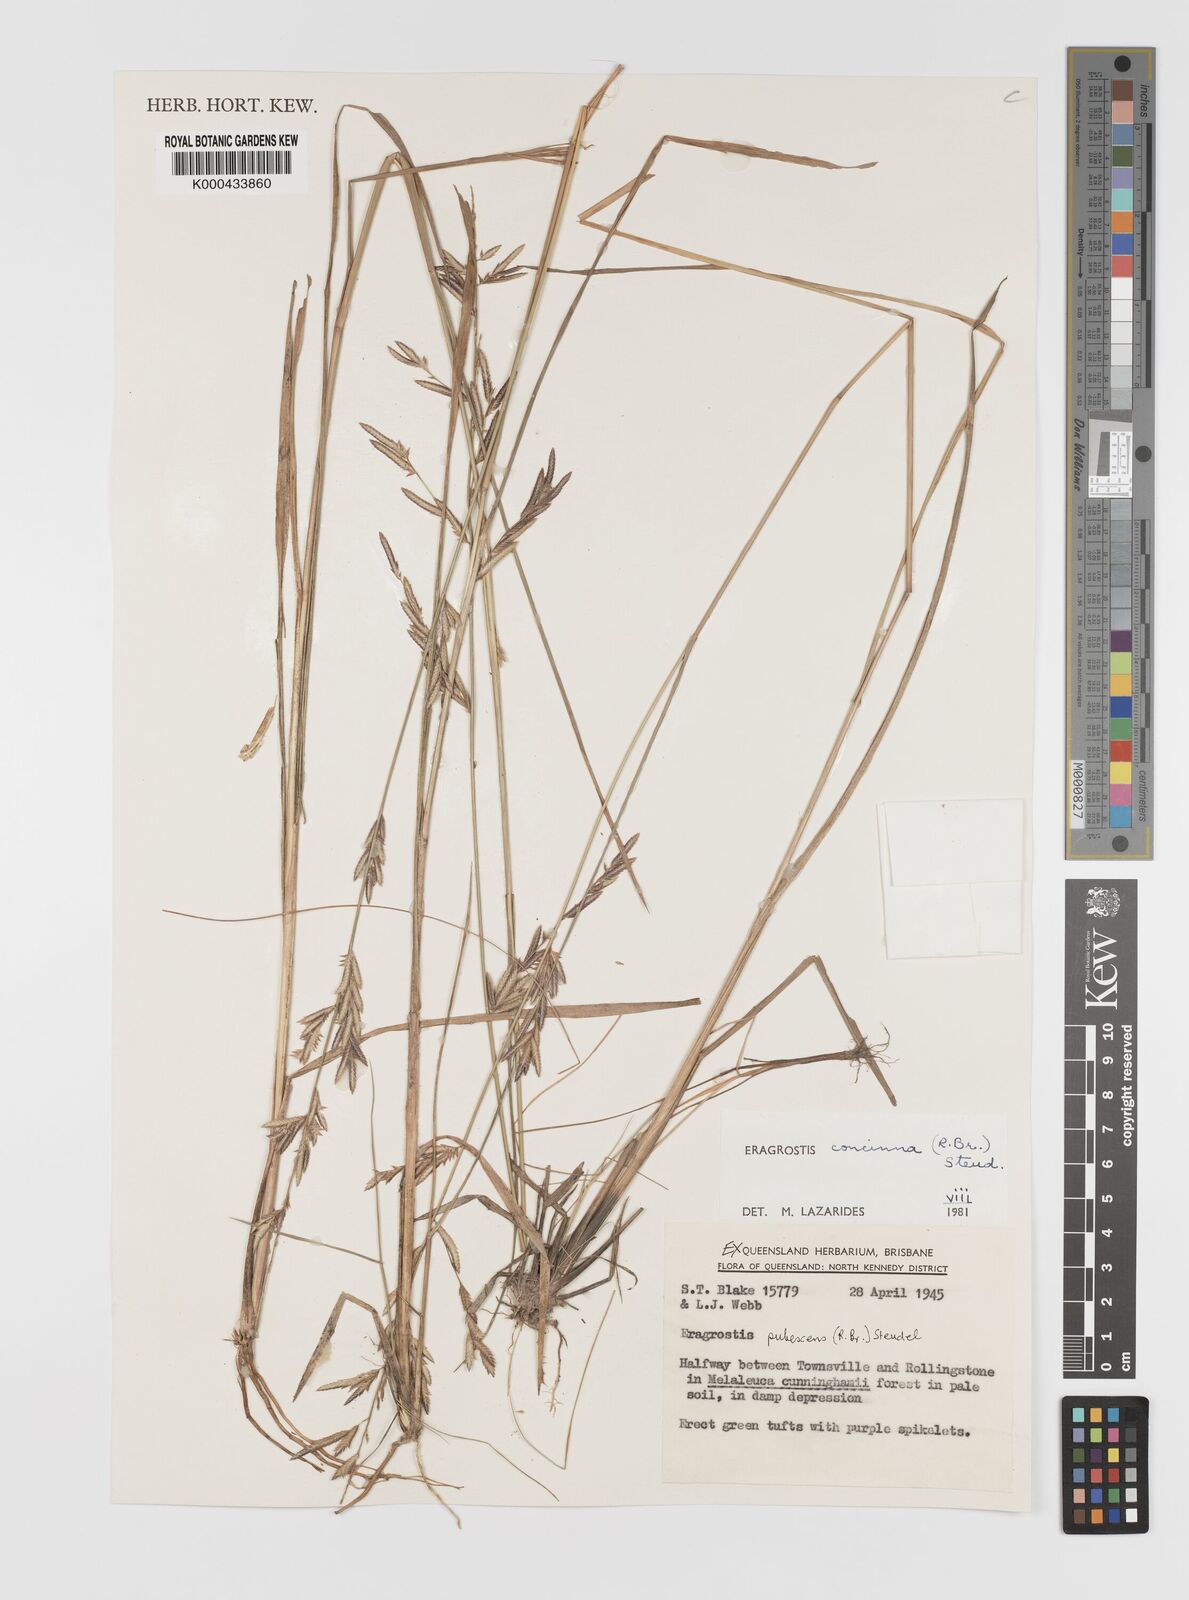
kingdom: Plantae
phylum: Tracheophyta
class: Liliopsida
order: Poales
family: Poaceae
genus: Eragrostis
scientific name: Eragrostis concinna
